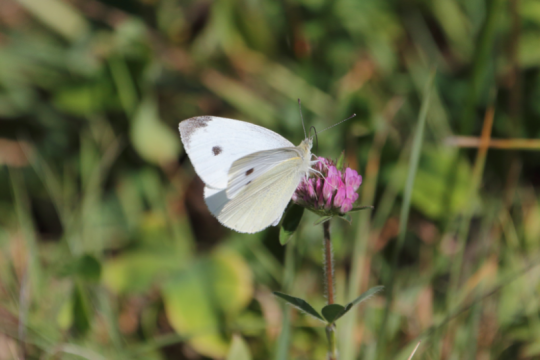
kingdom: Animalia
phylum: Arthropoda
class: Insecta
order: Lepidoptera
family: Pieridae
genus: Pieris
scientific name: Pieris rapae
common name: Cabbage White
